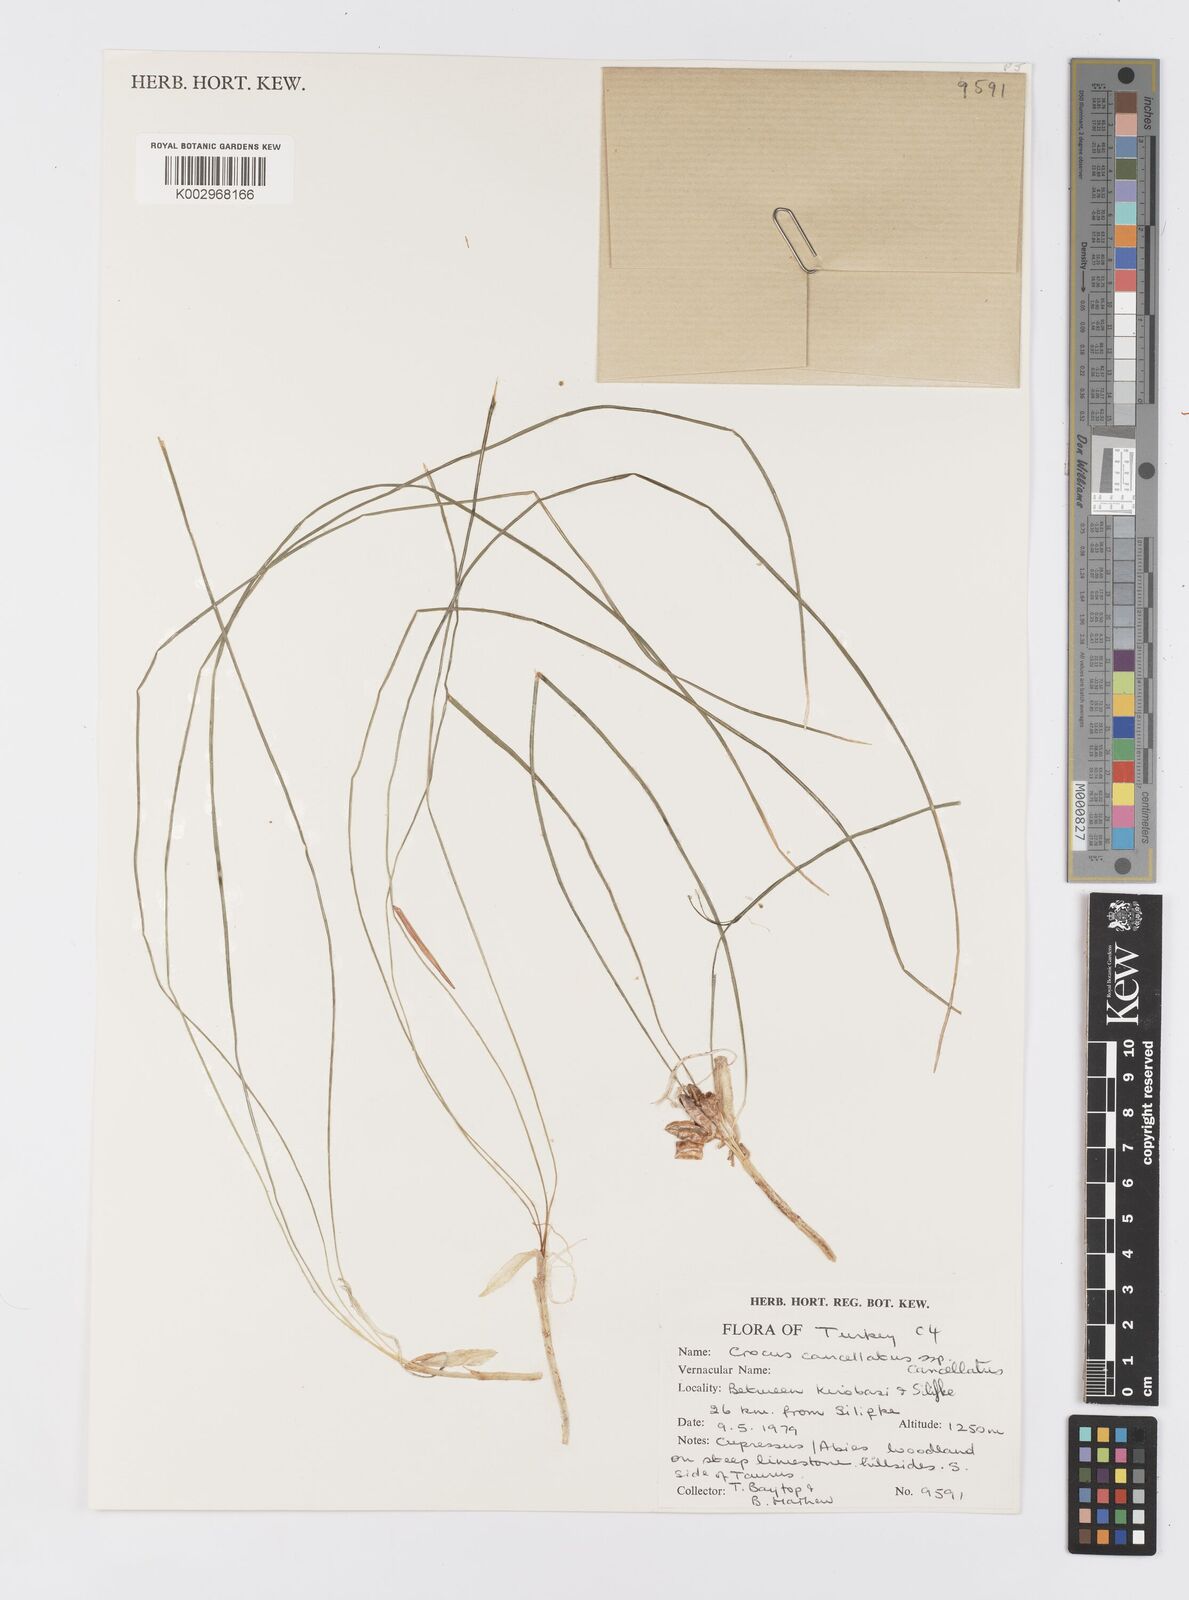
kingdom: Plantae
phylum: Tracheophyta
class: Liliopsida
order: Asparagales
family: Iridaceae
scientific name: Iridaceae
